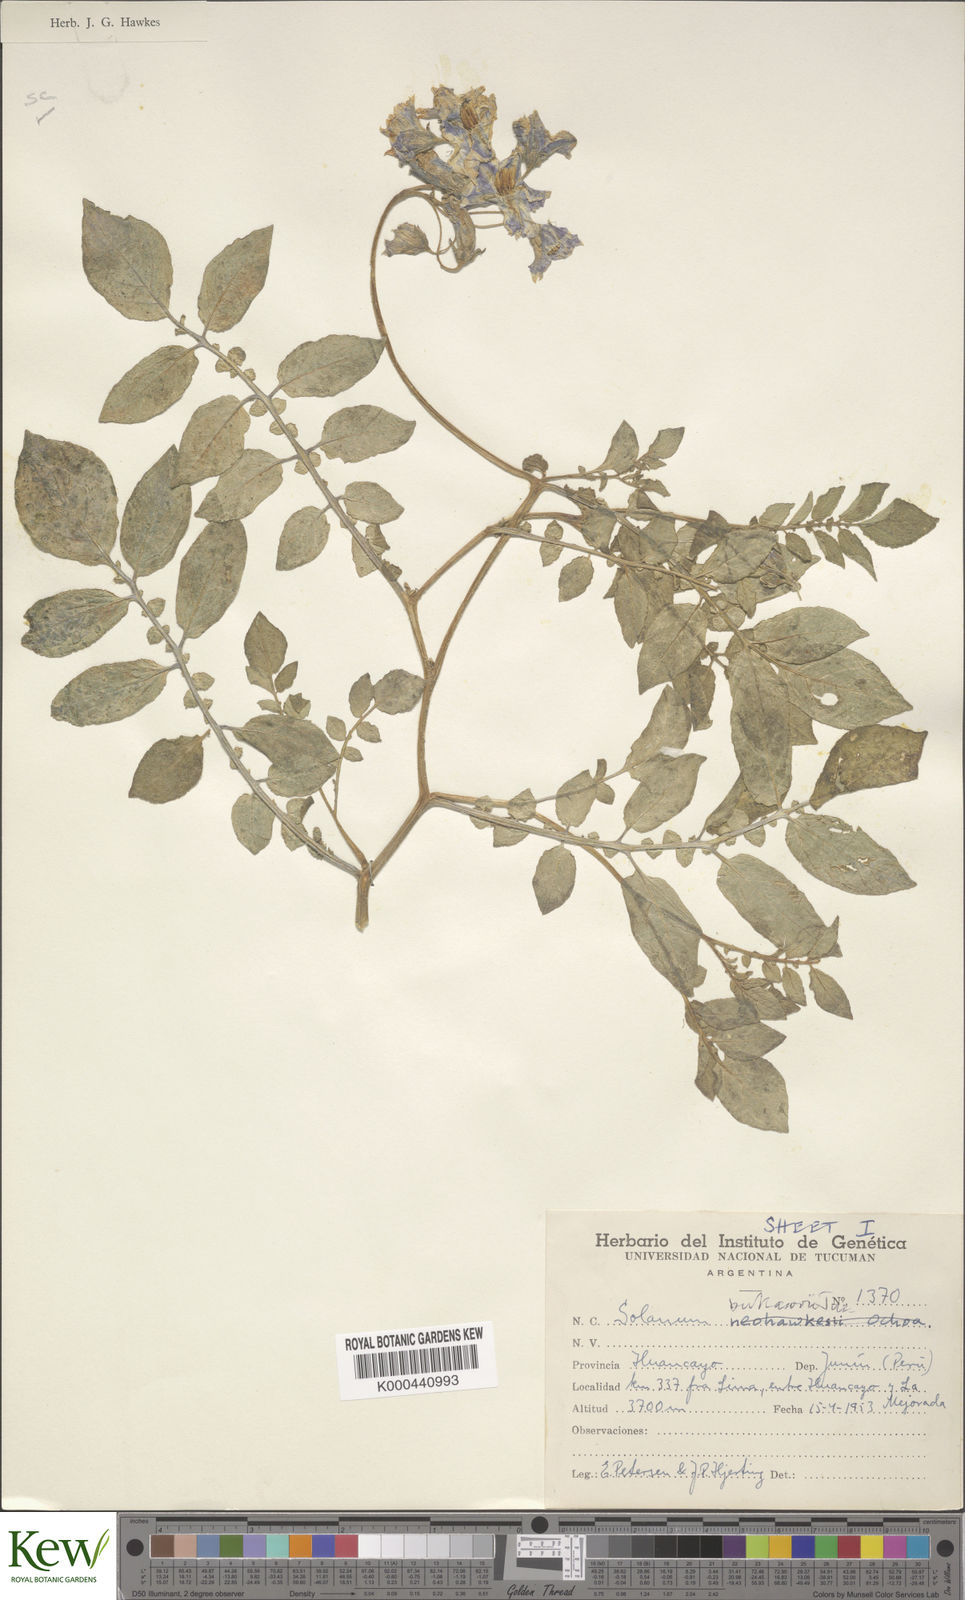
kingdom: Plantae
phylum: Tracheophyta
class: Magnoliopsida
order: Solanales
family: Solanaceae
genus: Solanum
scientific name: Solanum candolleanum
